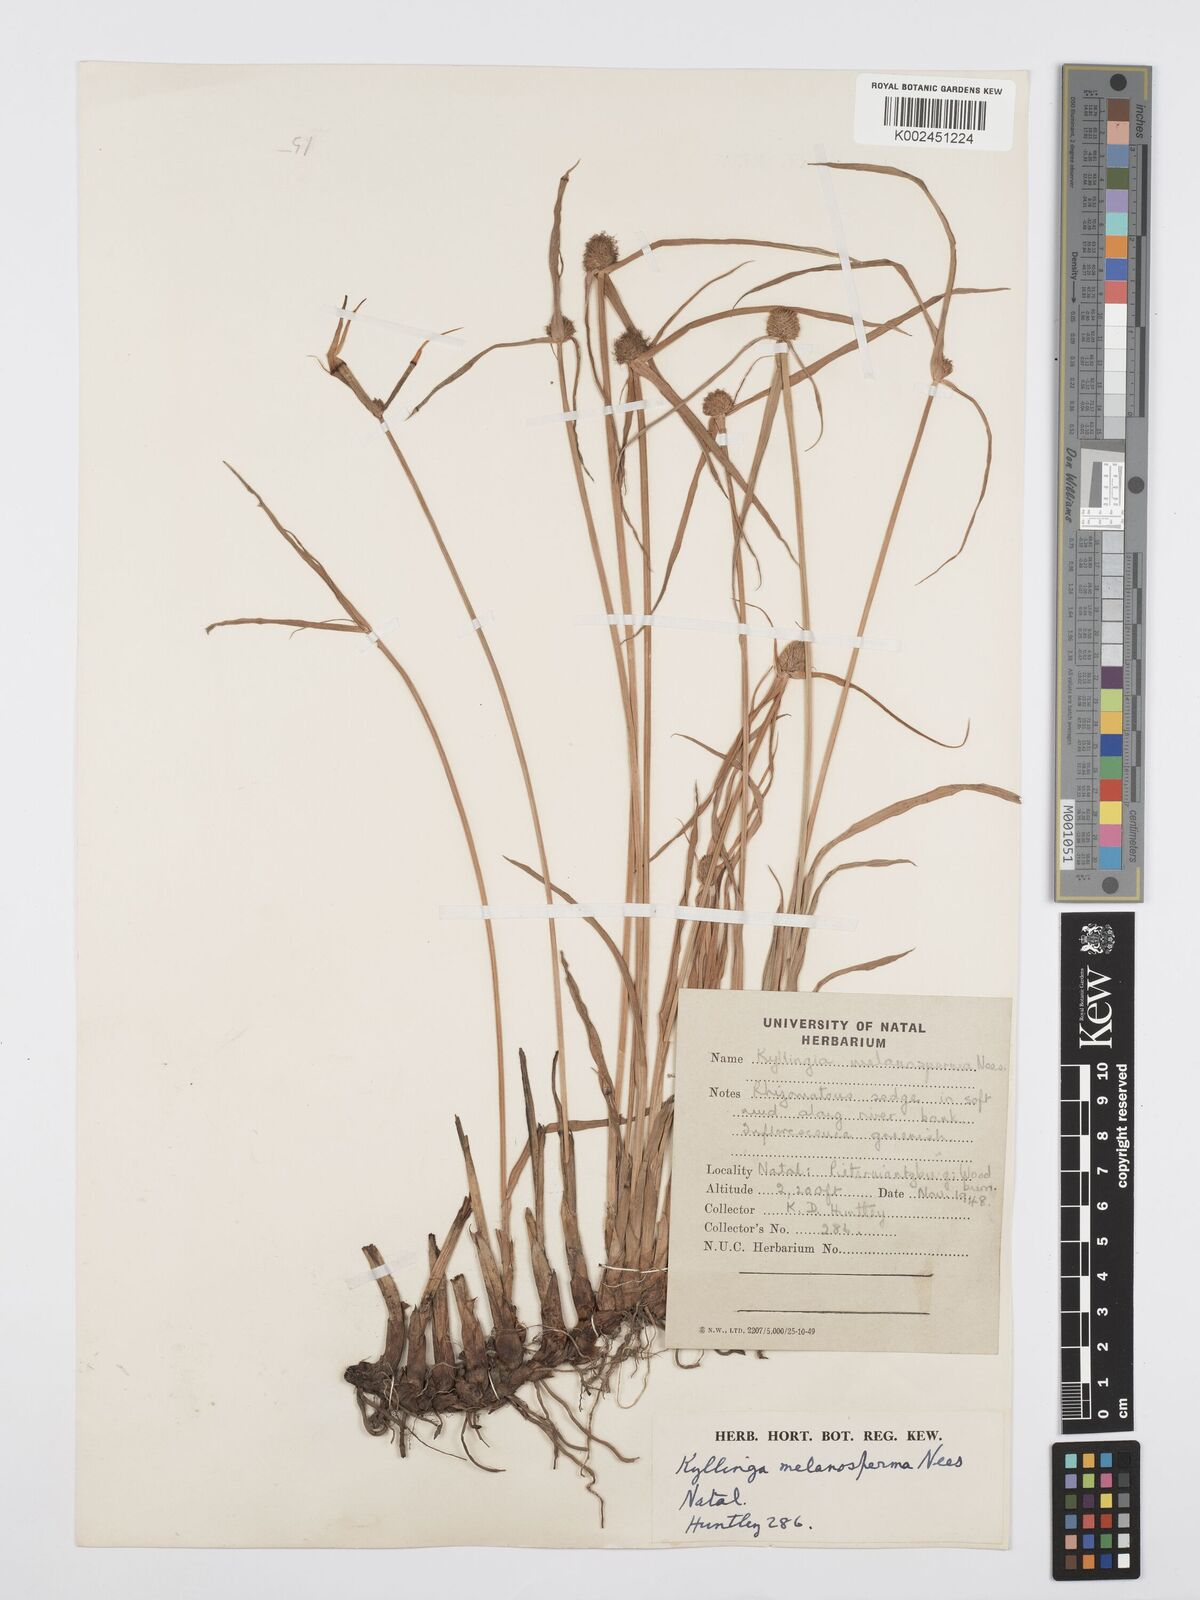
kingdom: Plantae
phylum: Tracheophyta
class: Liliopsida
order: Poales
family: Cyperaceae
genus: Cyperus
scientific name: Cyperus melanospermus
